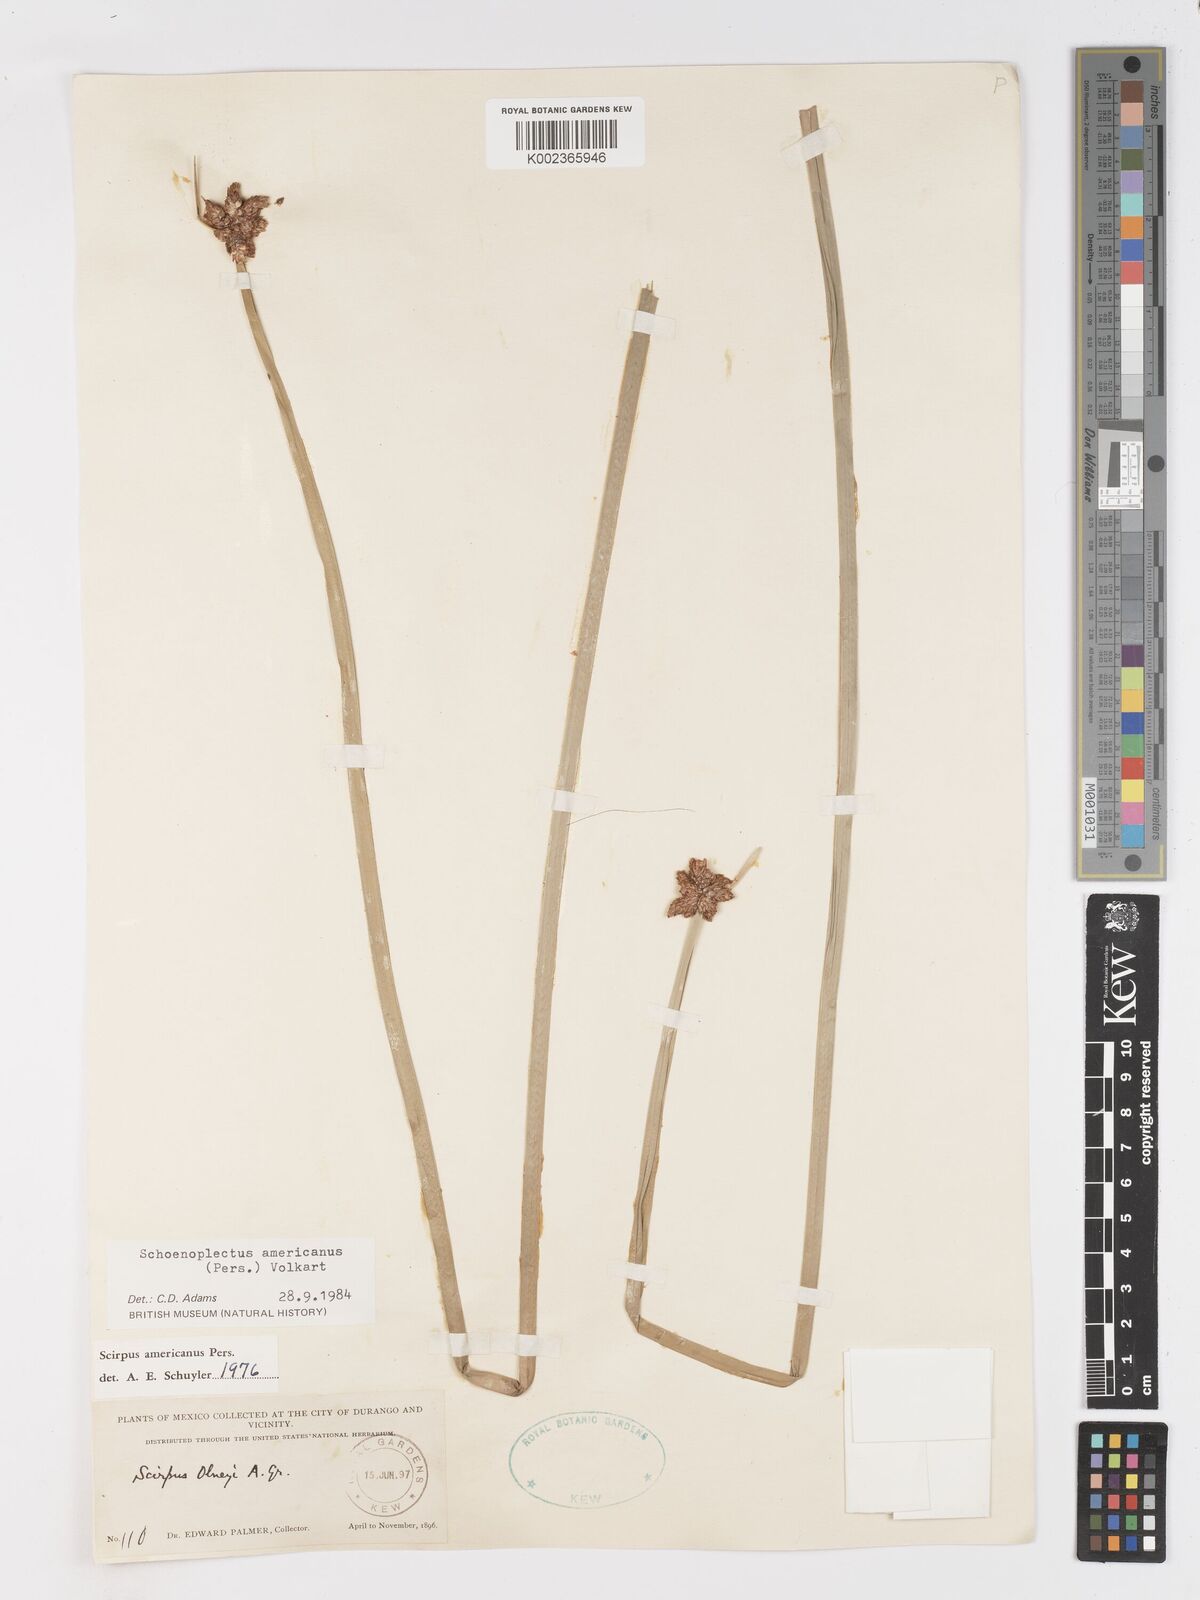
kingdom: Plantae
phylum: Tracheophyta
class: Liliopsida
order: Poales
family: Cyperaceae
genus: Schoenoplectus
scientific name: Schoenoplectus americanus
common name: American three-square bulrush
